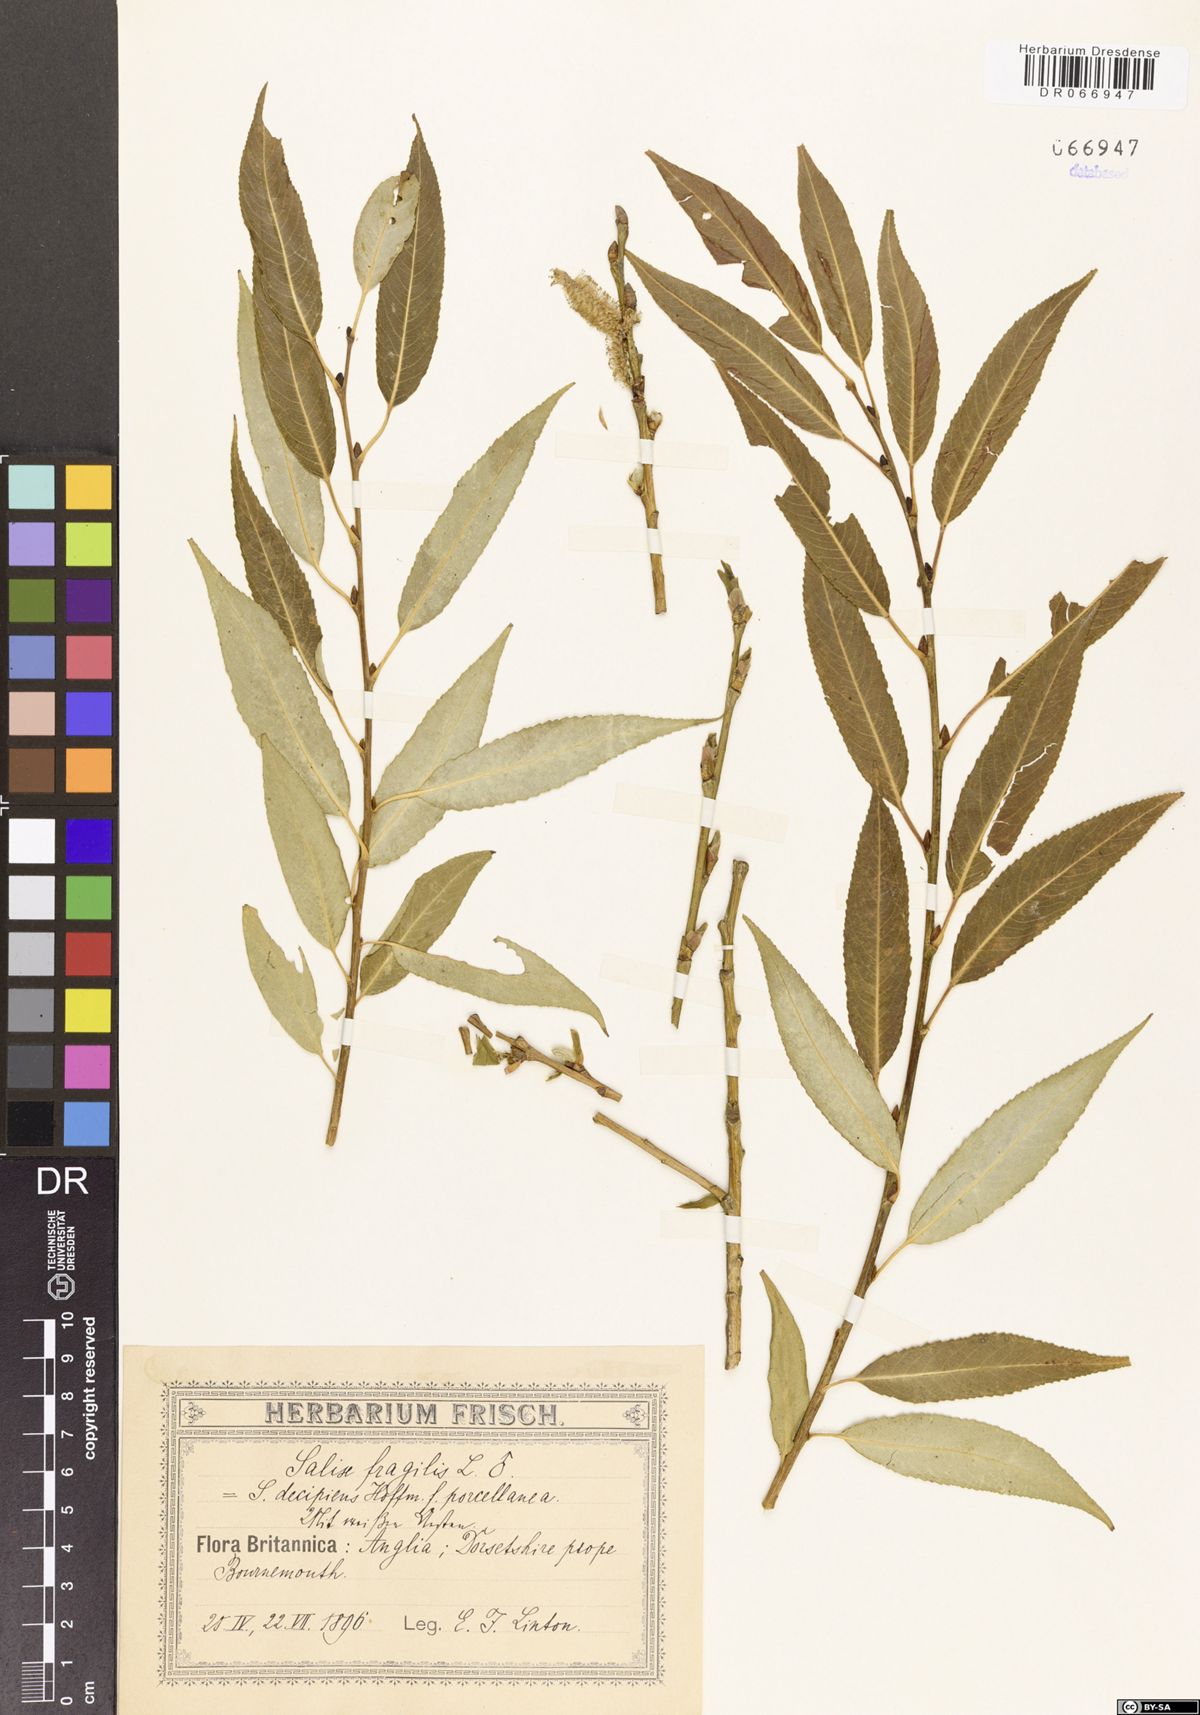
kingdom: Plantae
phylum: Tracheophyta
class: Magnoliopsida
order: Malpighiales
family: Salicaceae
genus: Salix
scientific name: Salix fragilis
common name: Crack willow
